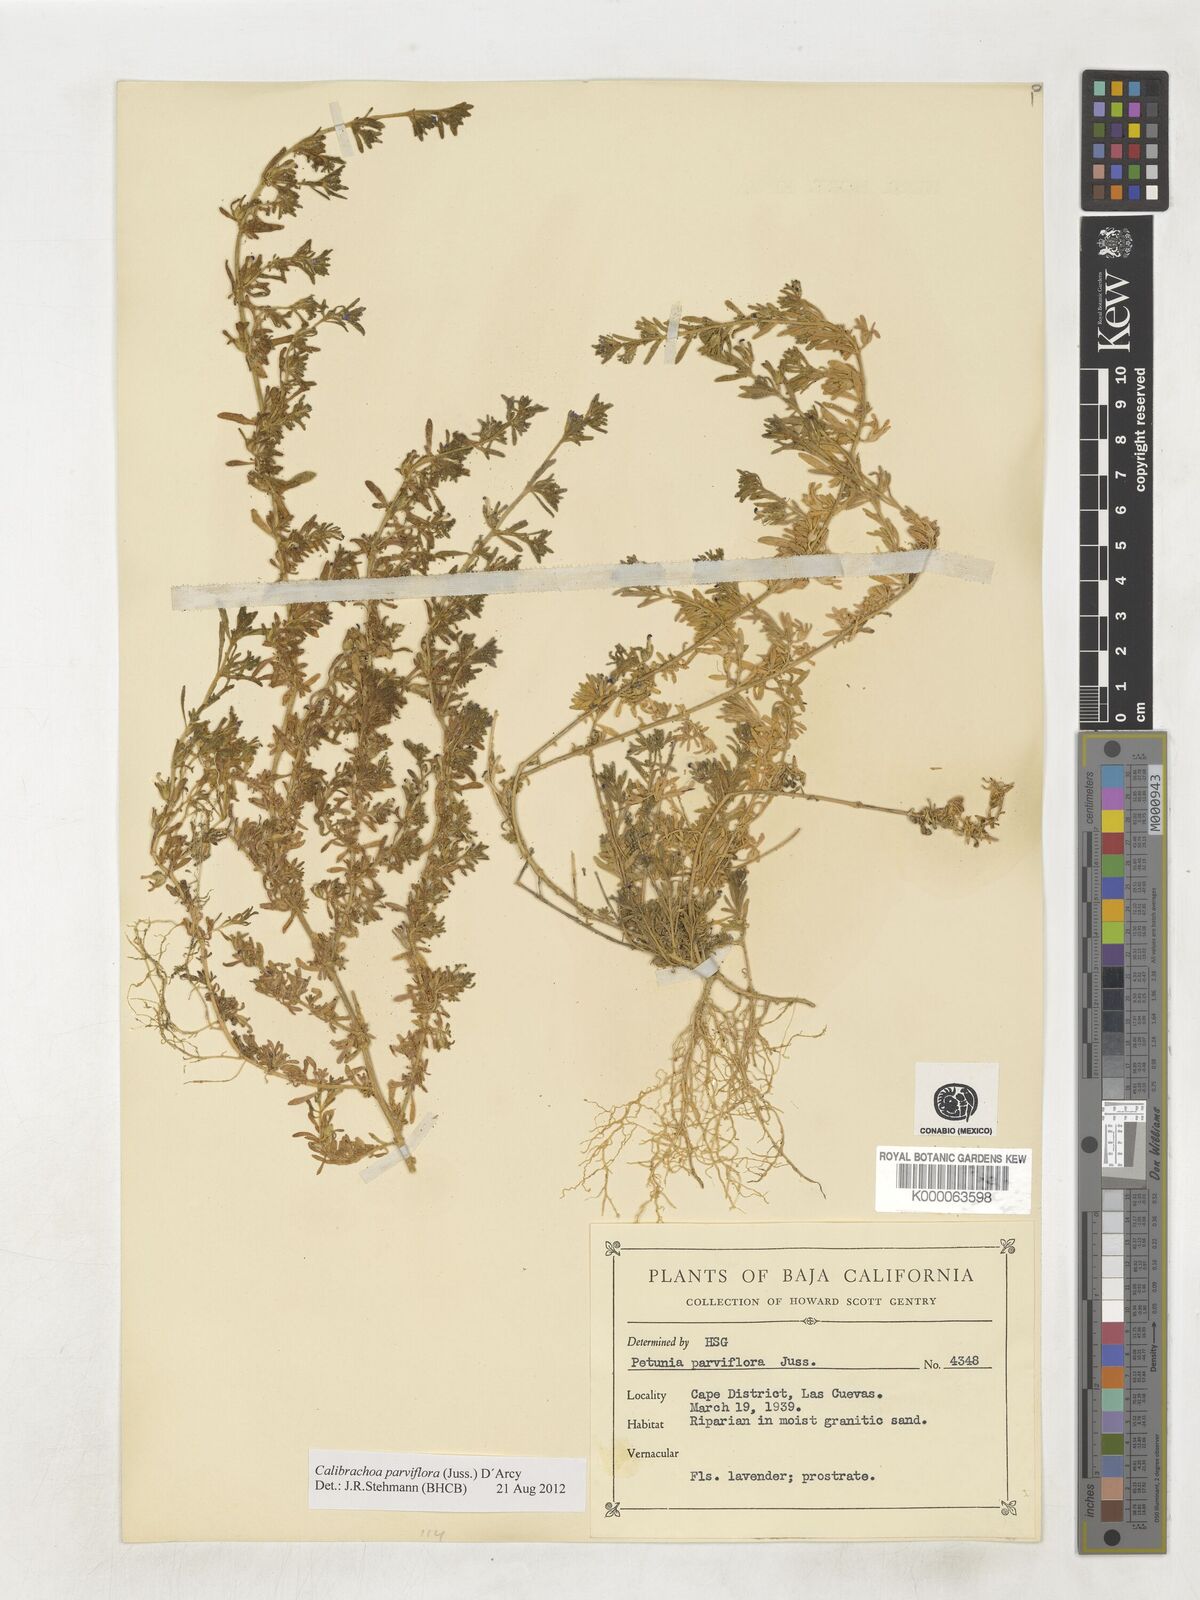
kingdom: Plantae
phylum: Tracheophyta
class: Magnoliopsida
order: Solanales
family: Solanaceae
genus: Calibrachoa
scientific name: Calibrachoa parviflora
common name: Seaside petunia
